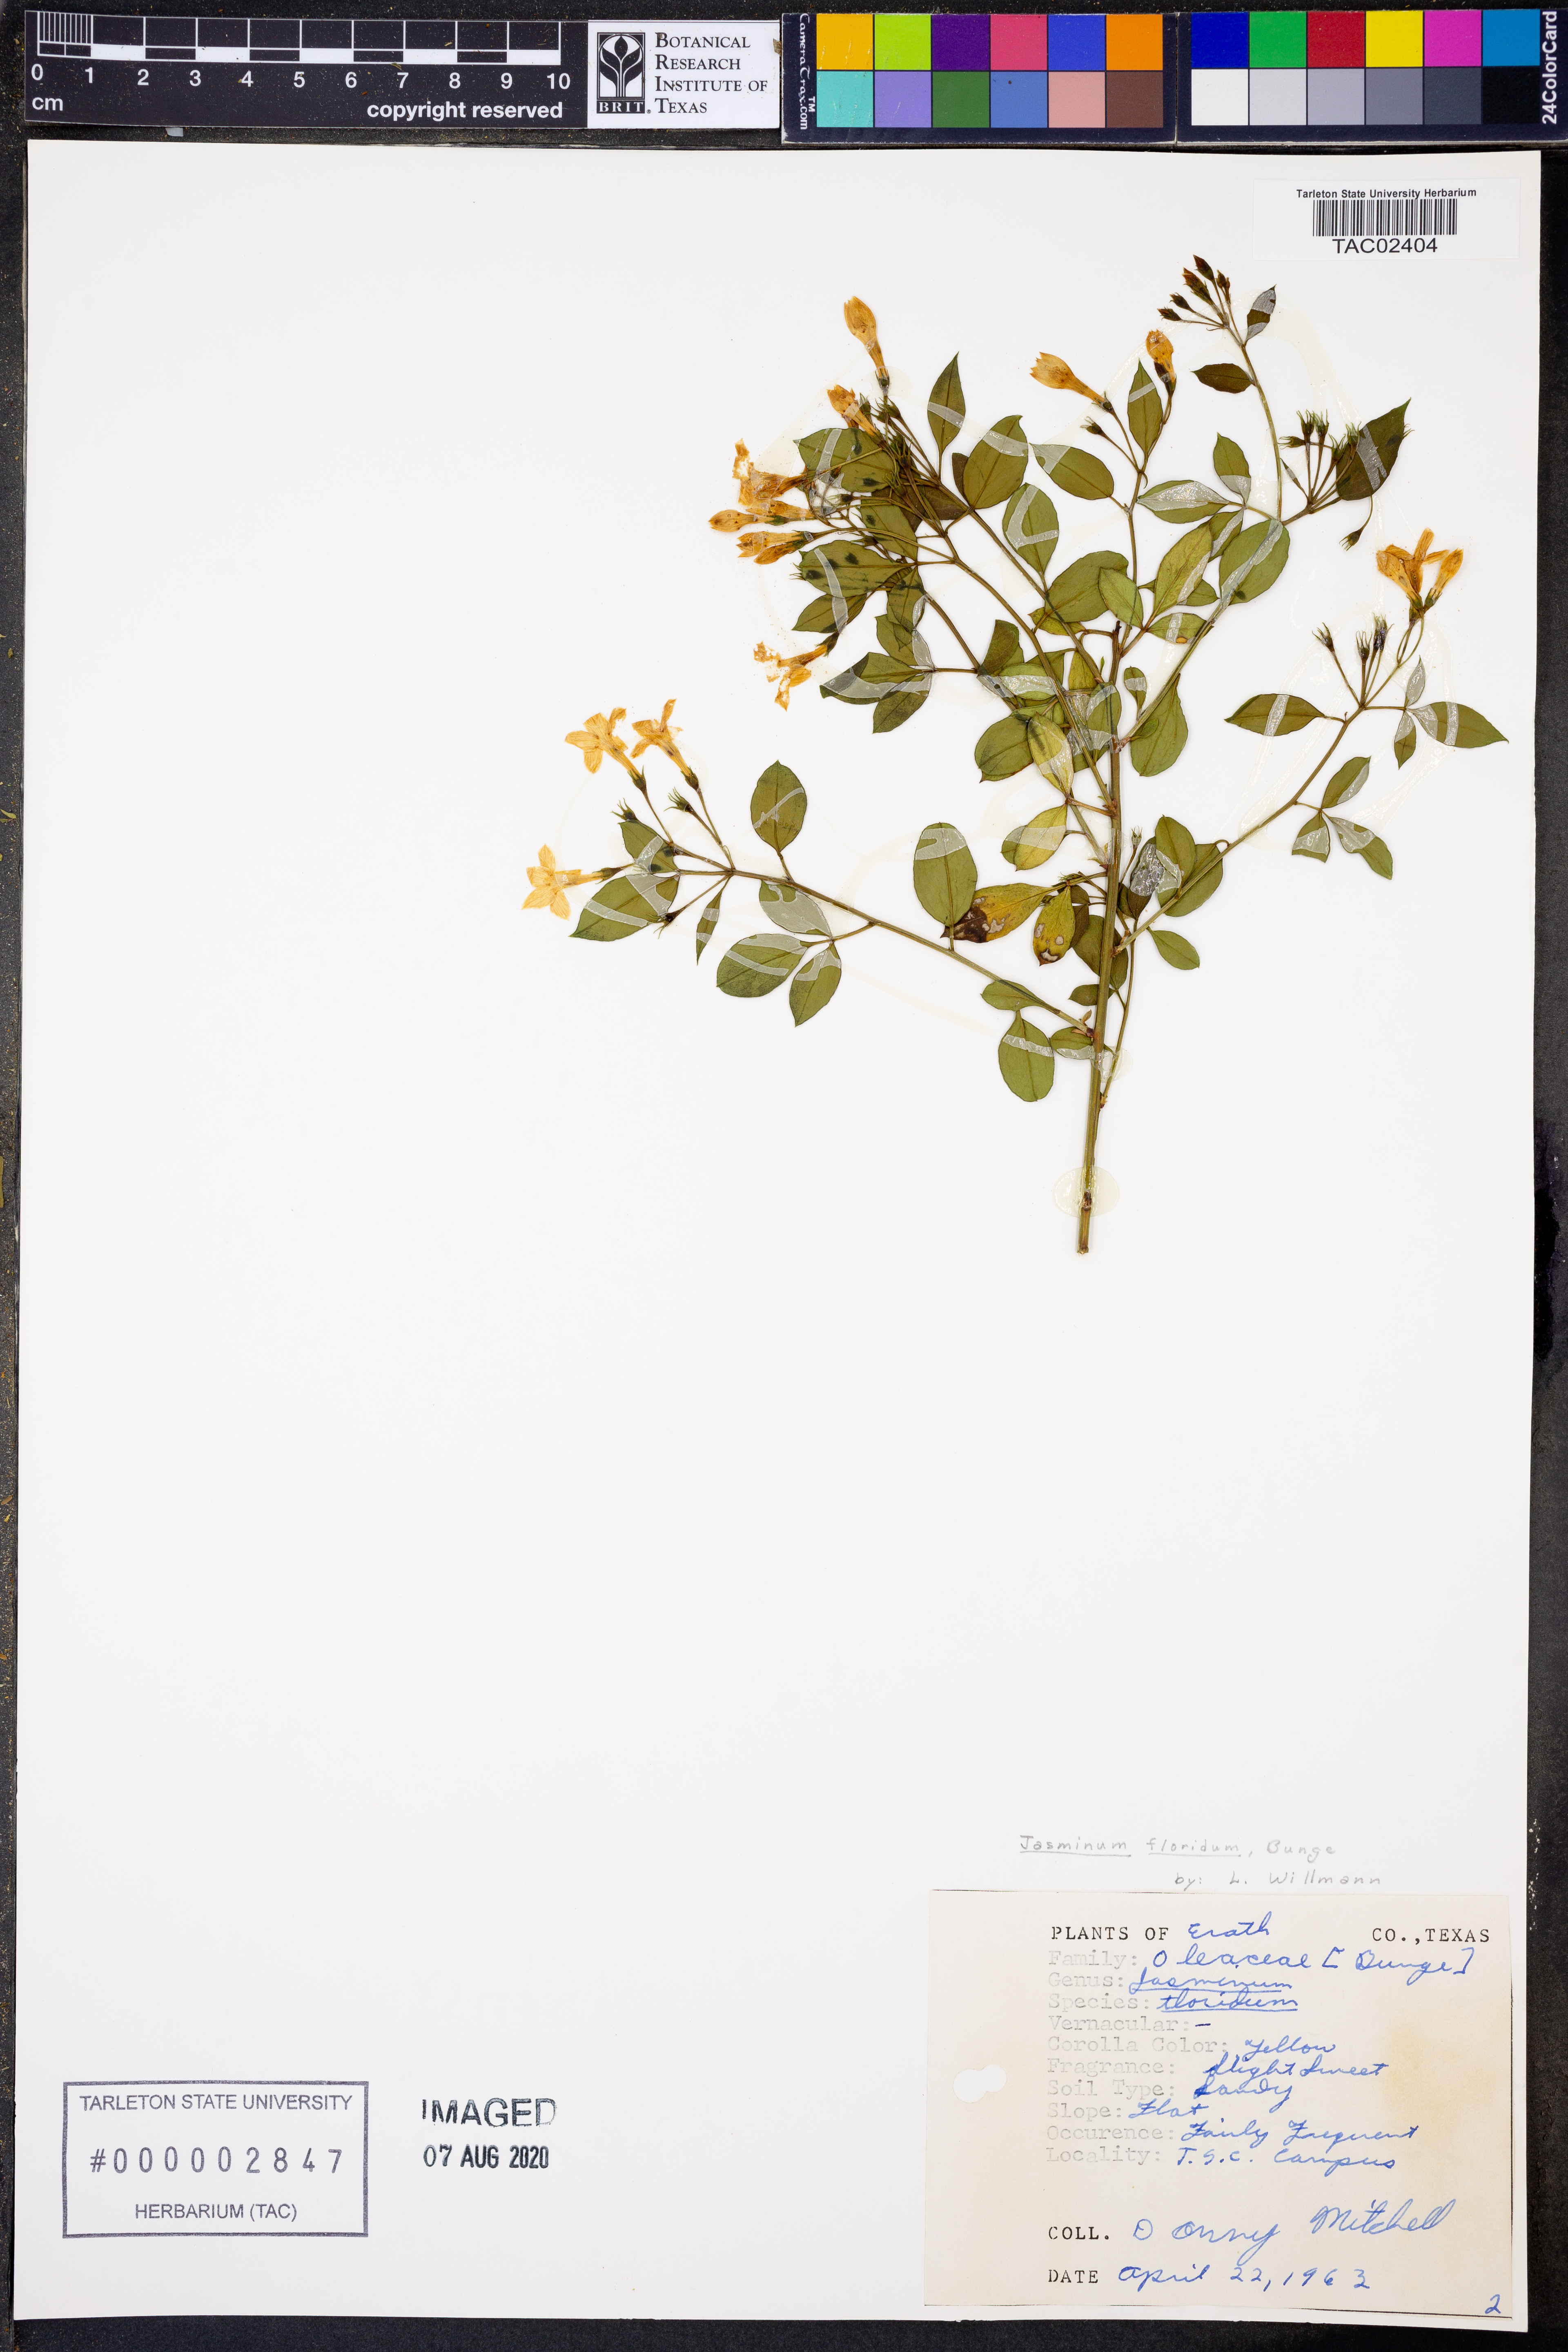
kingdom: Plantae
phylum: Tracheophyta
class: Magnoliopsida
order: Lamiales
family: Oleaceae
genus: Chrysojasminum
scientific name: Chrysojasminum floridum
